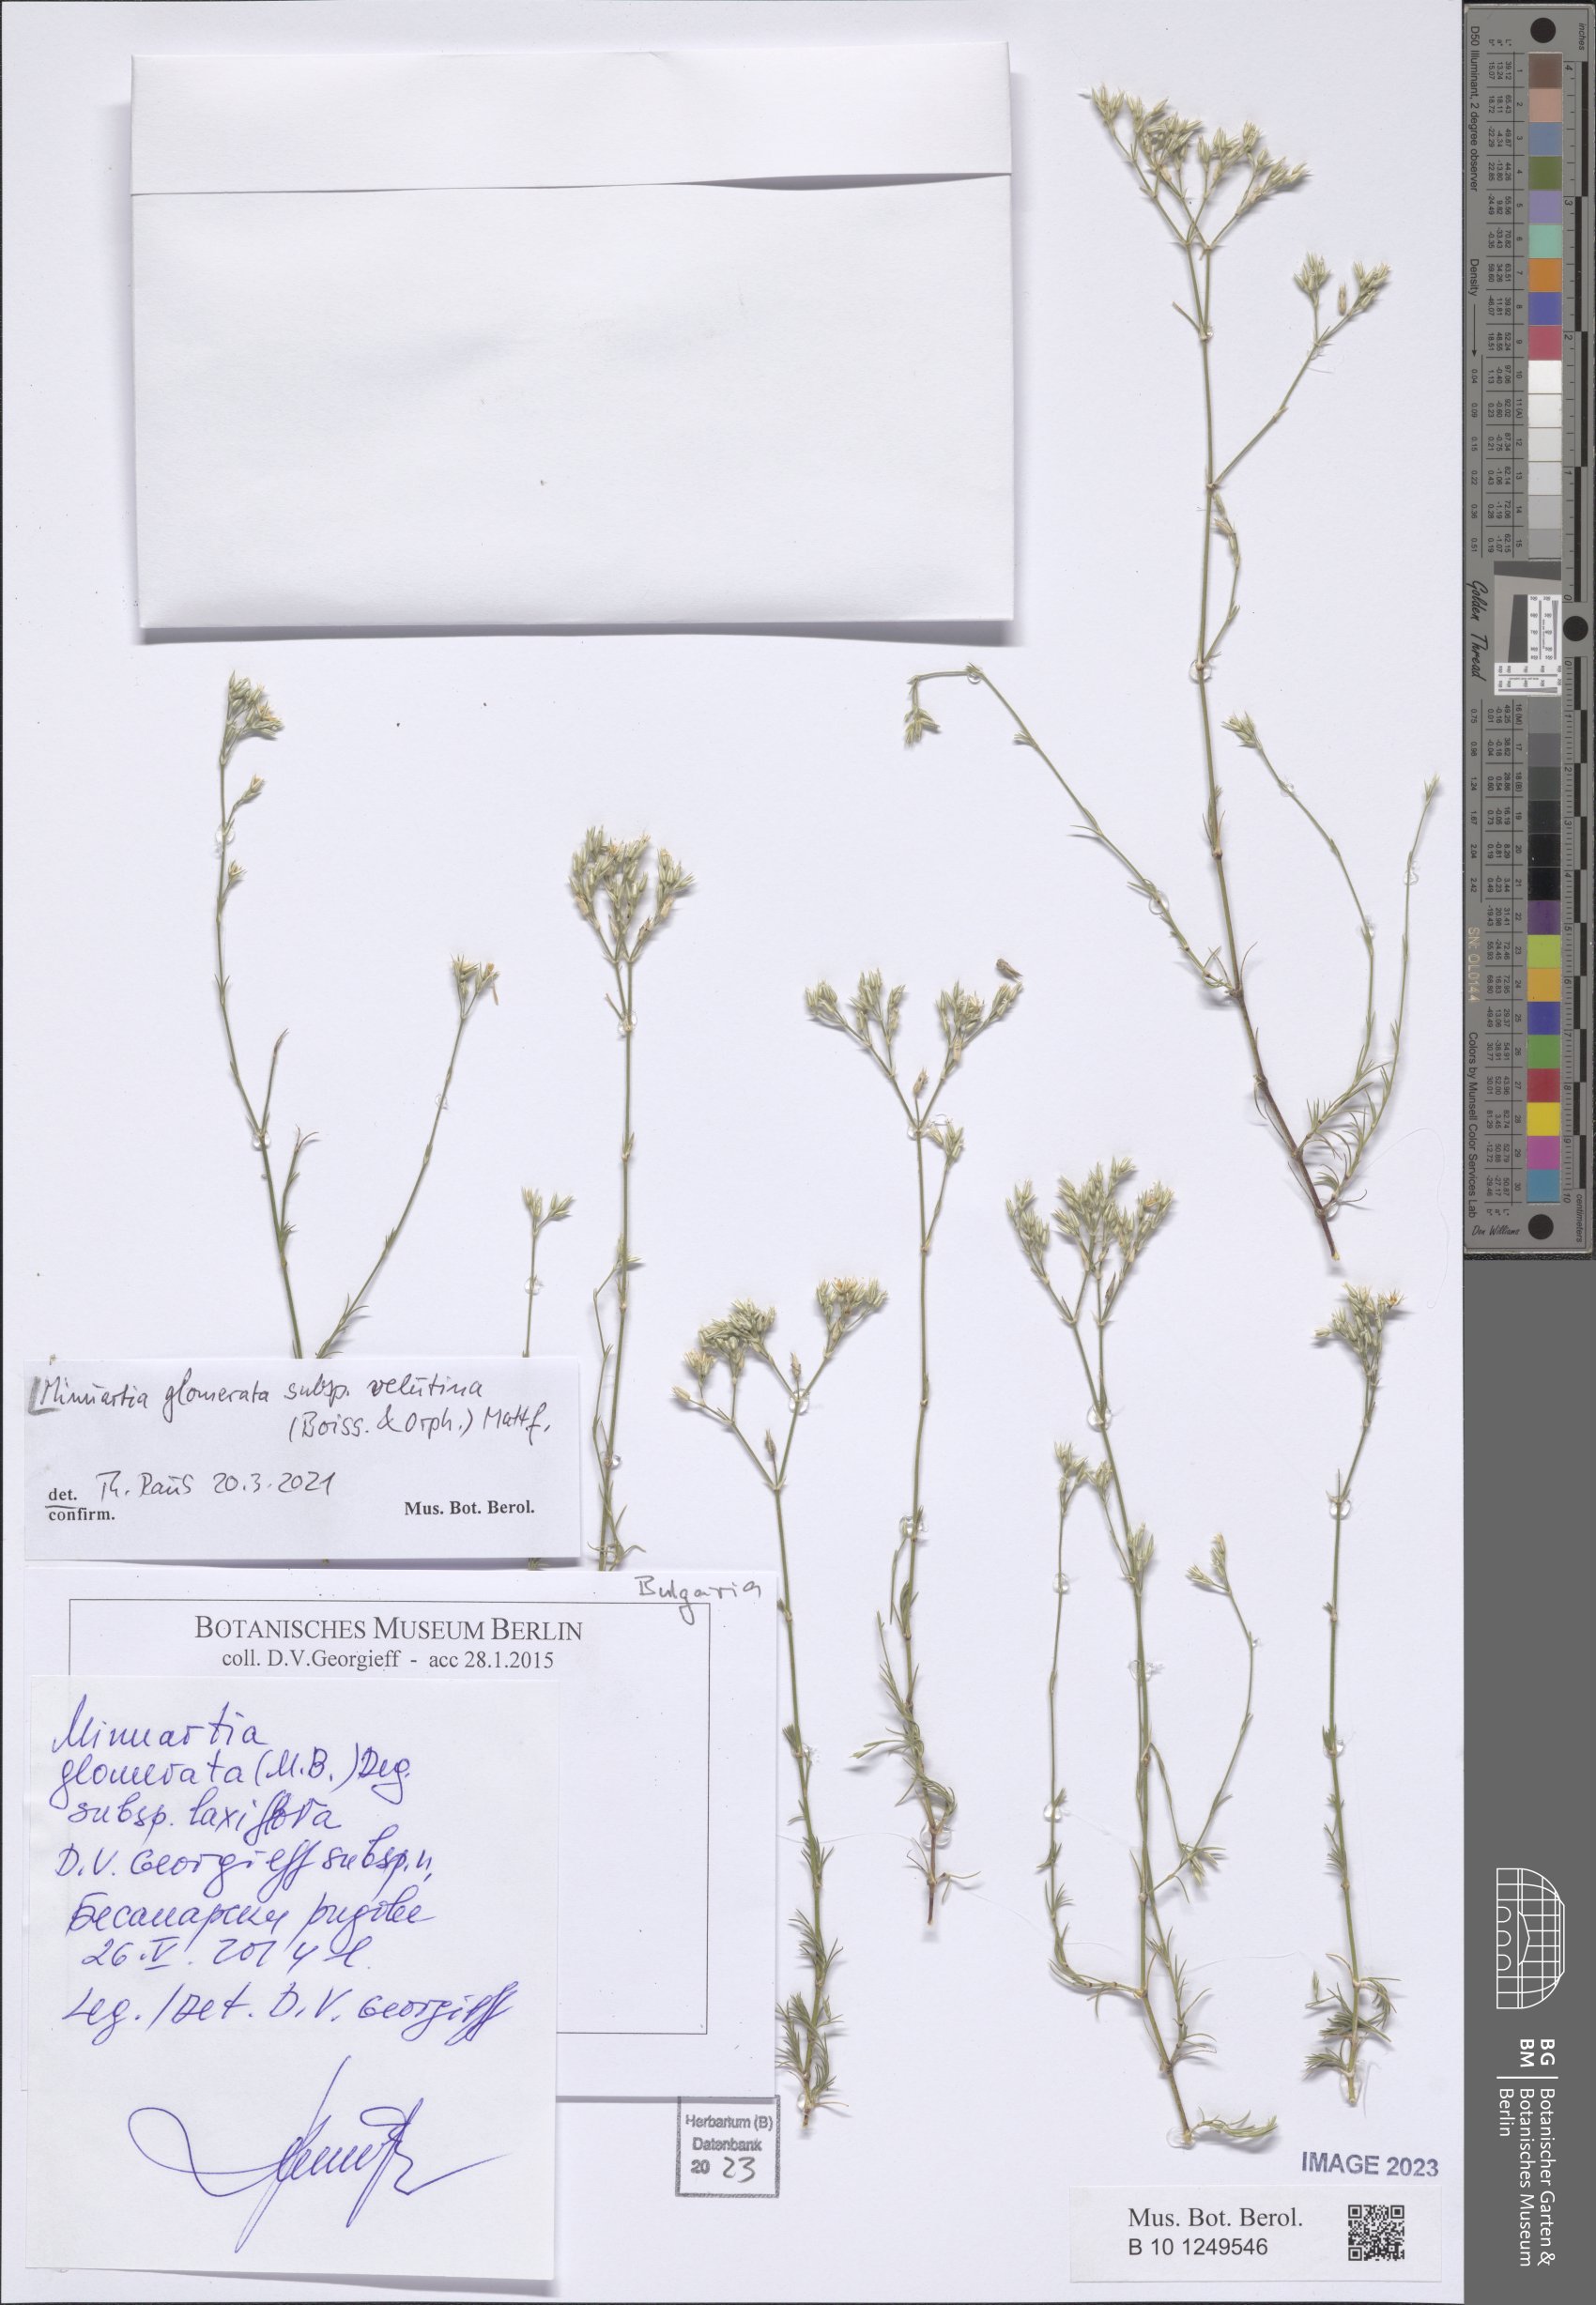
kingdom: Plantae
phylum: Tracheophyta
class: Magnoliopsida
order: Caryophyllales
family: Caryophyllaceae
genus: Minuartia
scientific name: Minuartia glomerata
